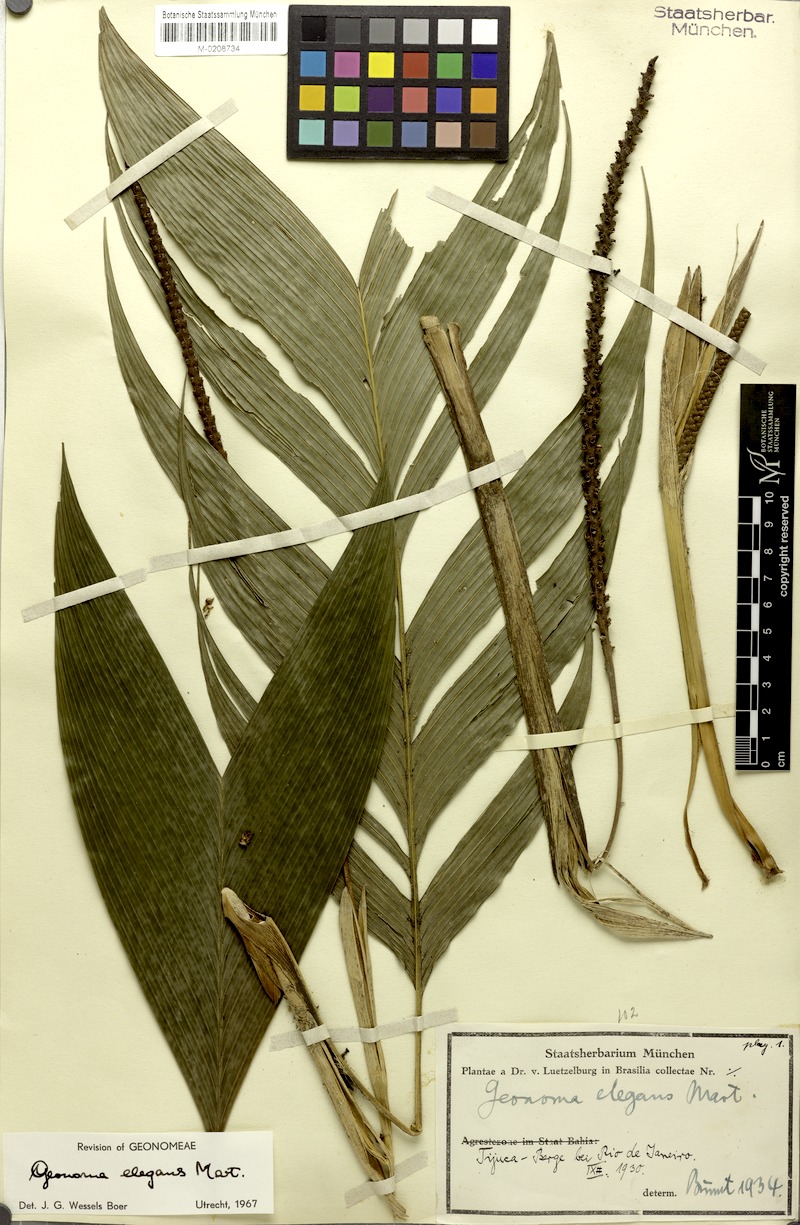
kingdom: Plantae
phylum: Tracheophyta
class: Liliopsida
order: Arecales
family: Arecaceae
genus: Geonoma
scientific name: Geonoma elegans
